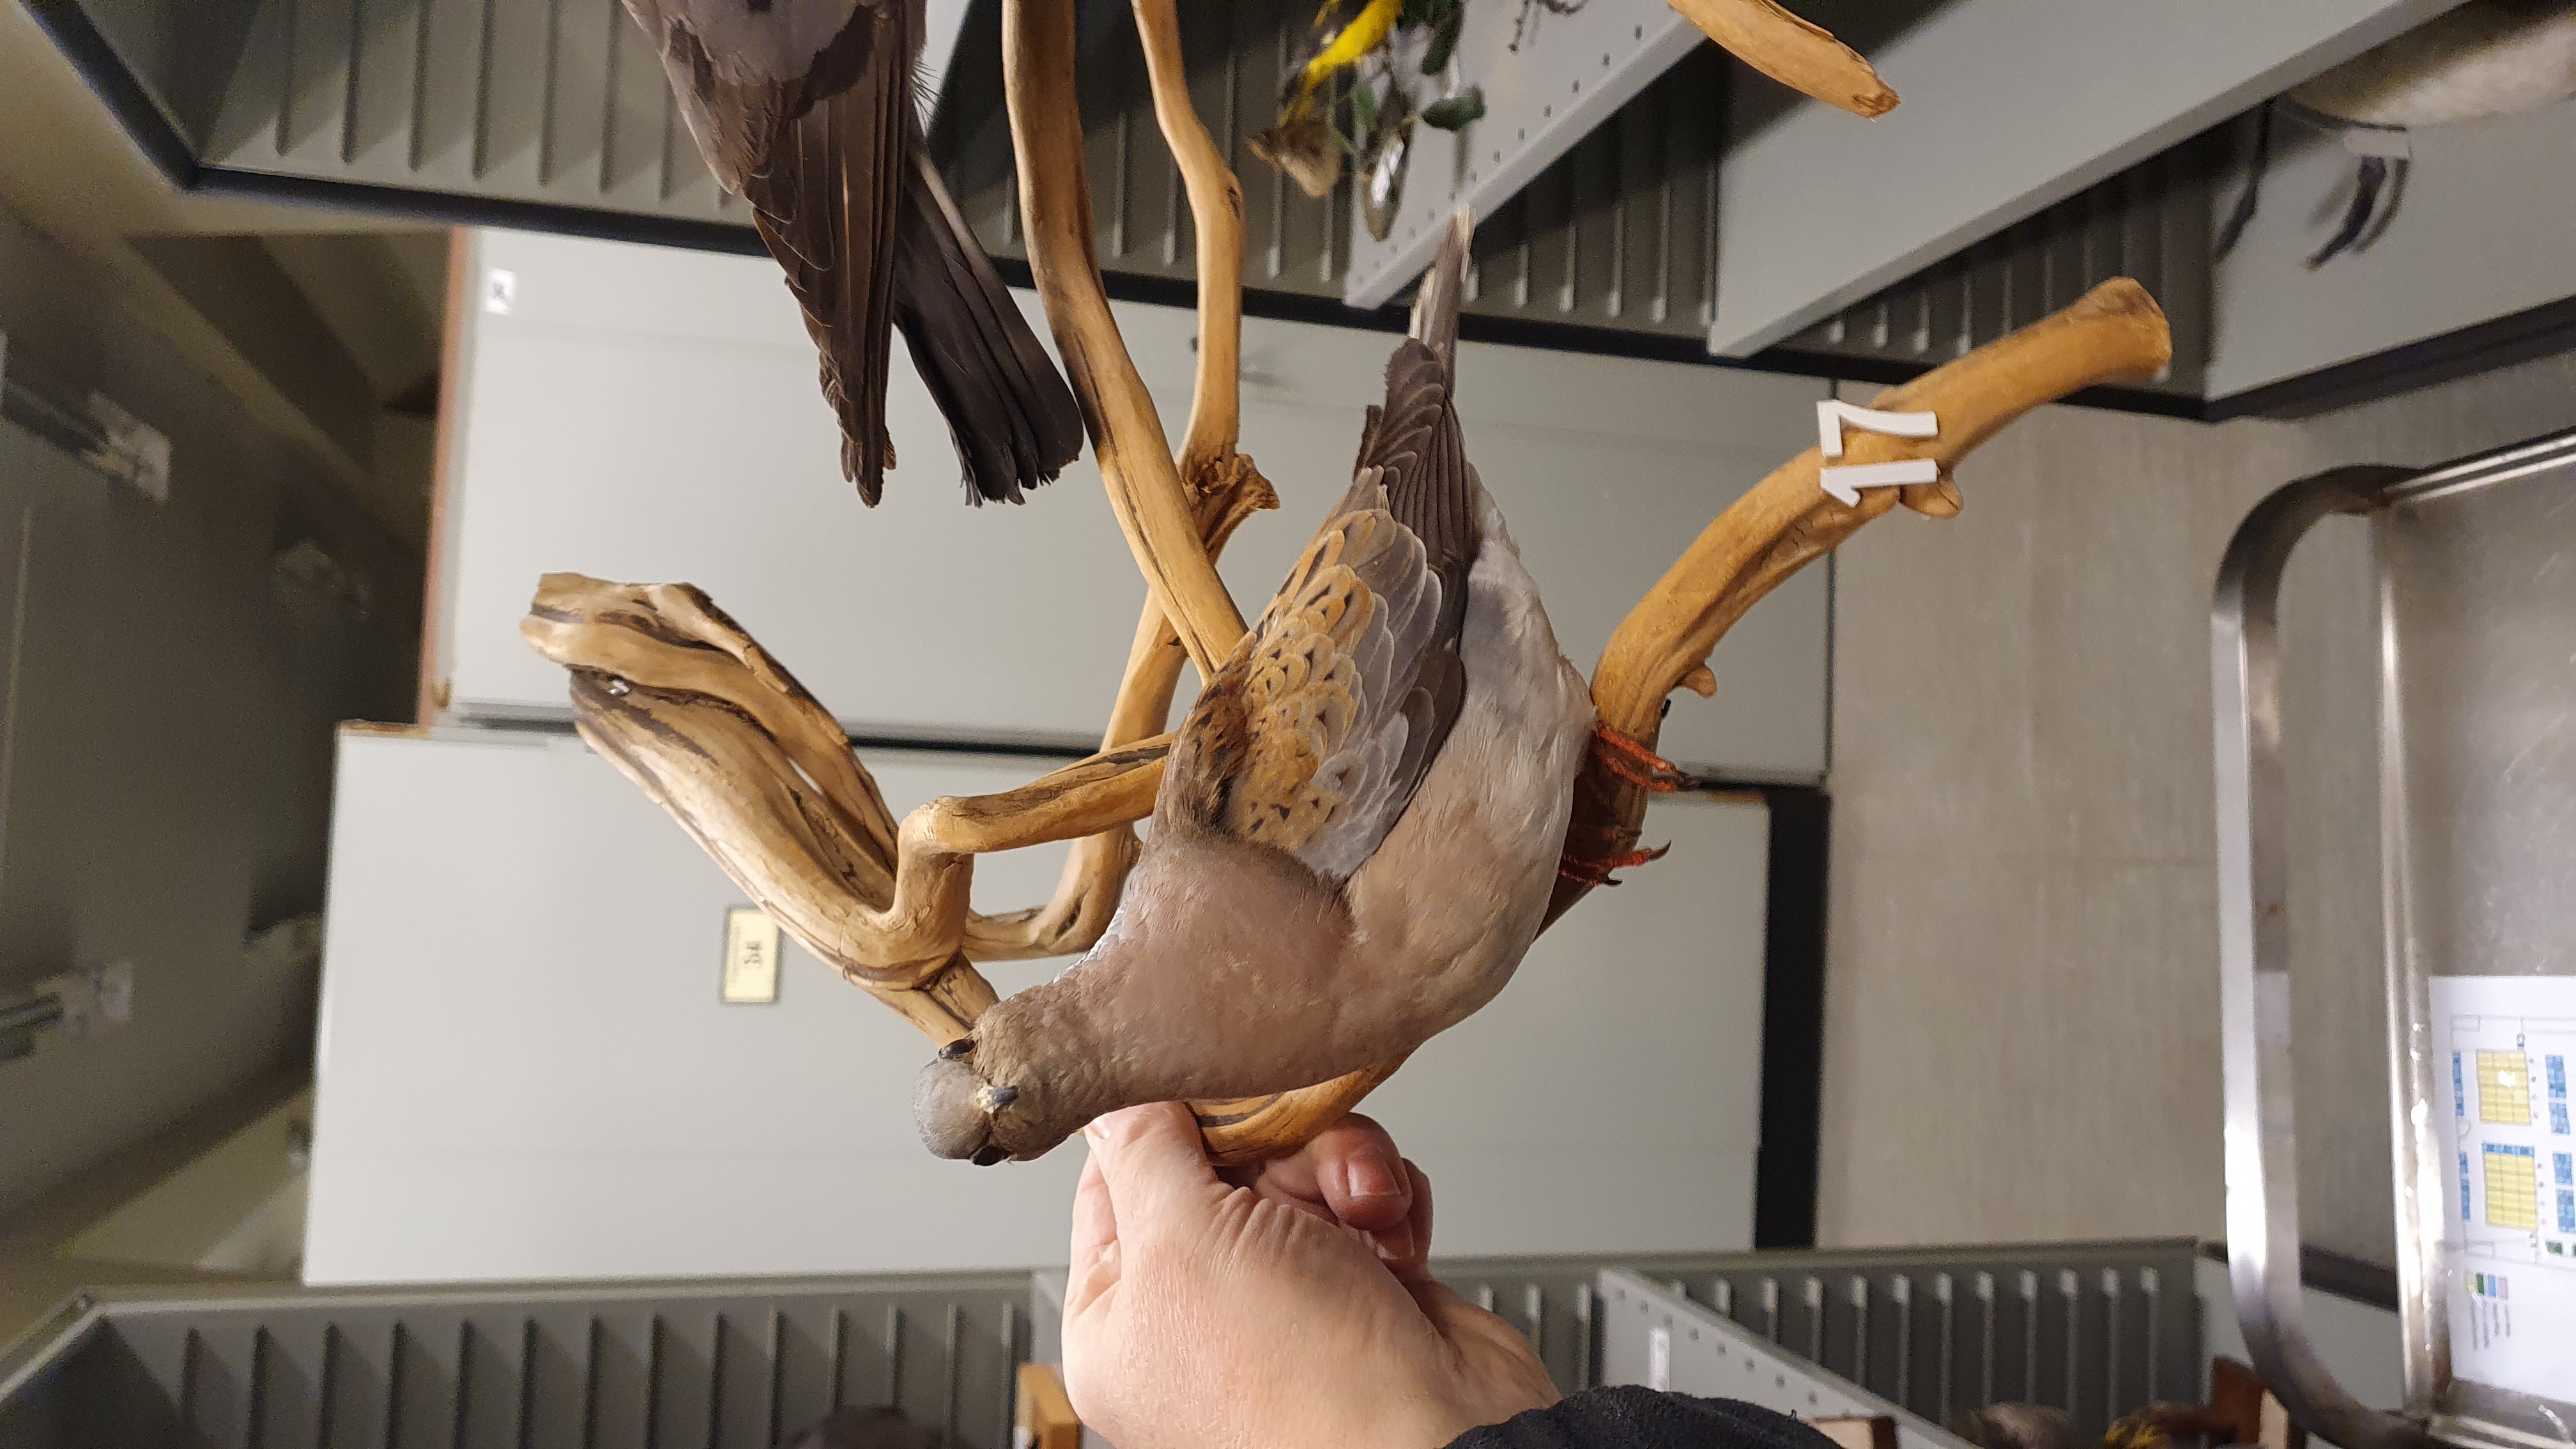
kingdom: Animalia
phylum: Chordata
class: Aves
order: Columbiformes
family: Columbidae
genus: Streptopelia
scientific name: Streptopelia turtur
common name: European turtle dove
